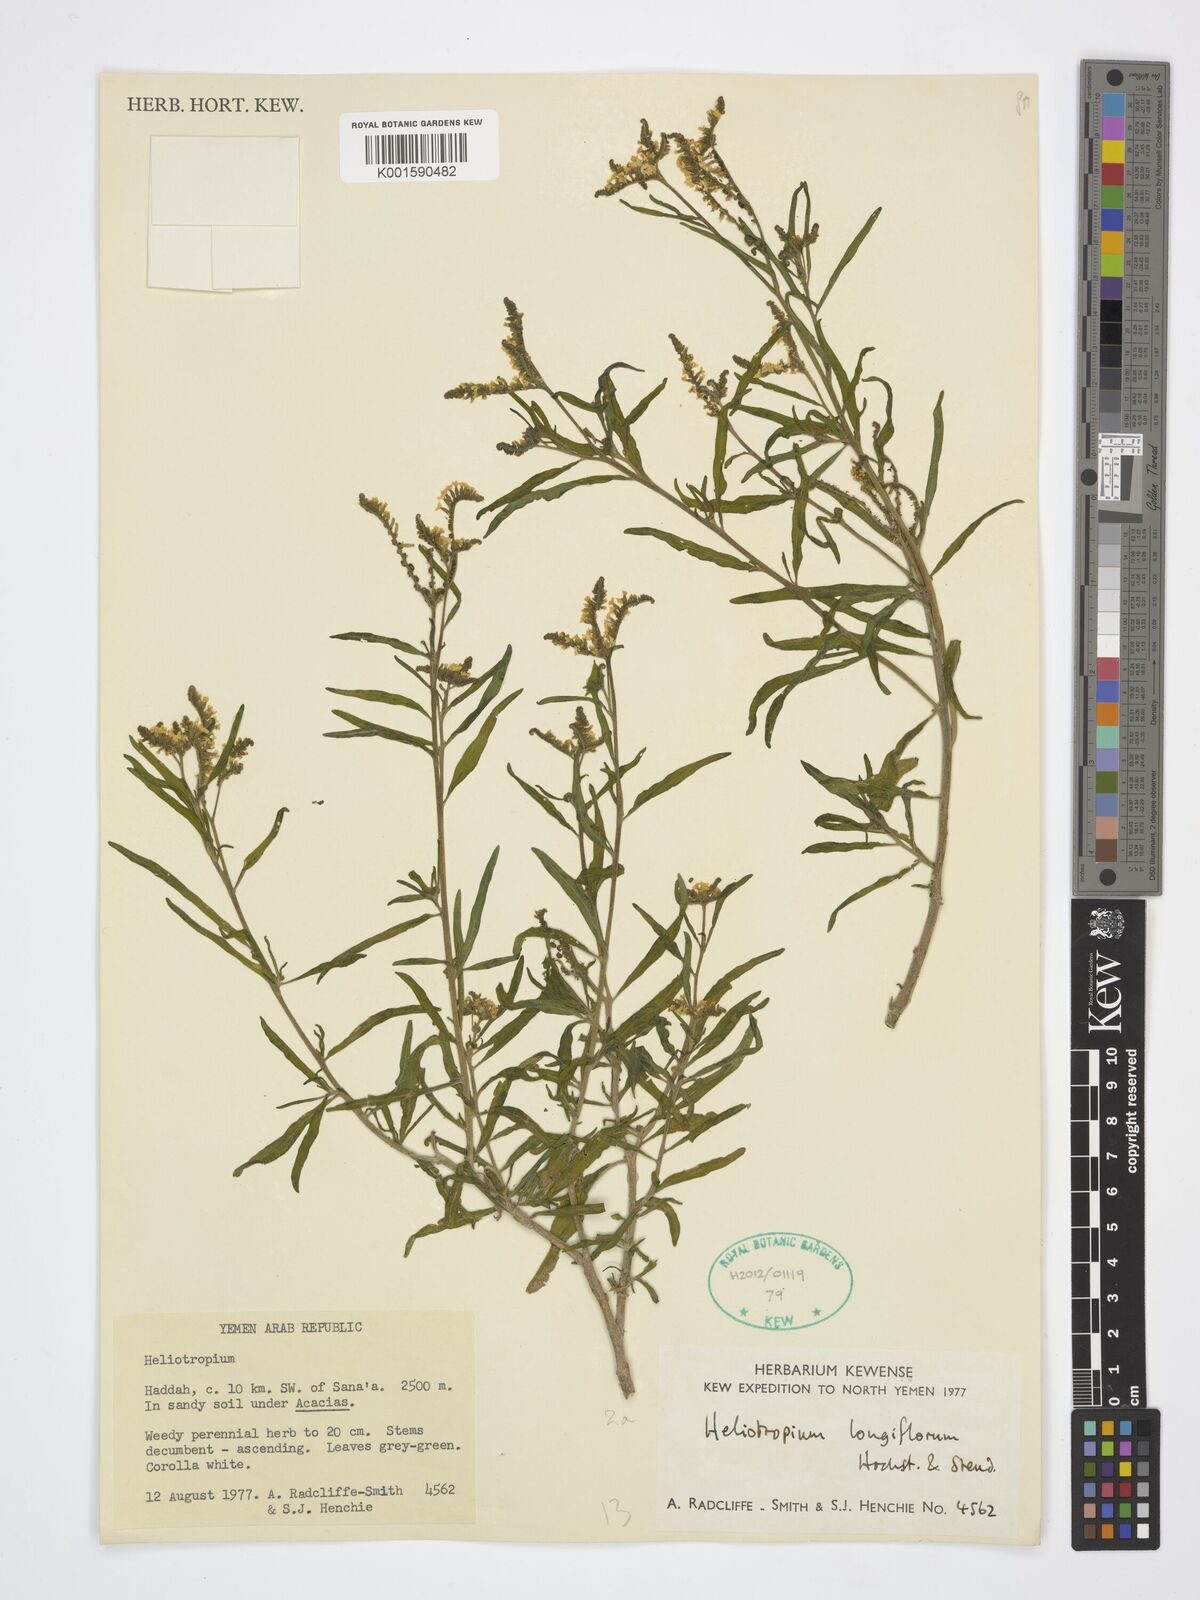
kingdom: Plantae
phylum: Tracheophyta
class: Magnoliopsida
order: Boraginales
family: Heliotropiaceae
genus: Heliotropium
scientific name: Heliotropium longiflorum
